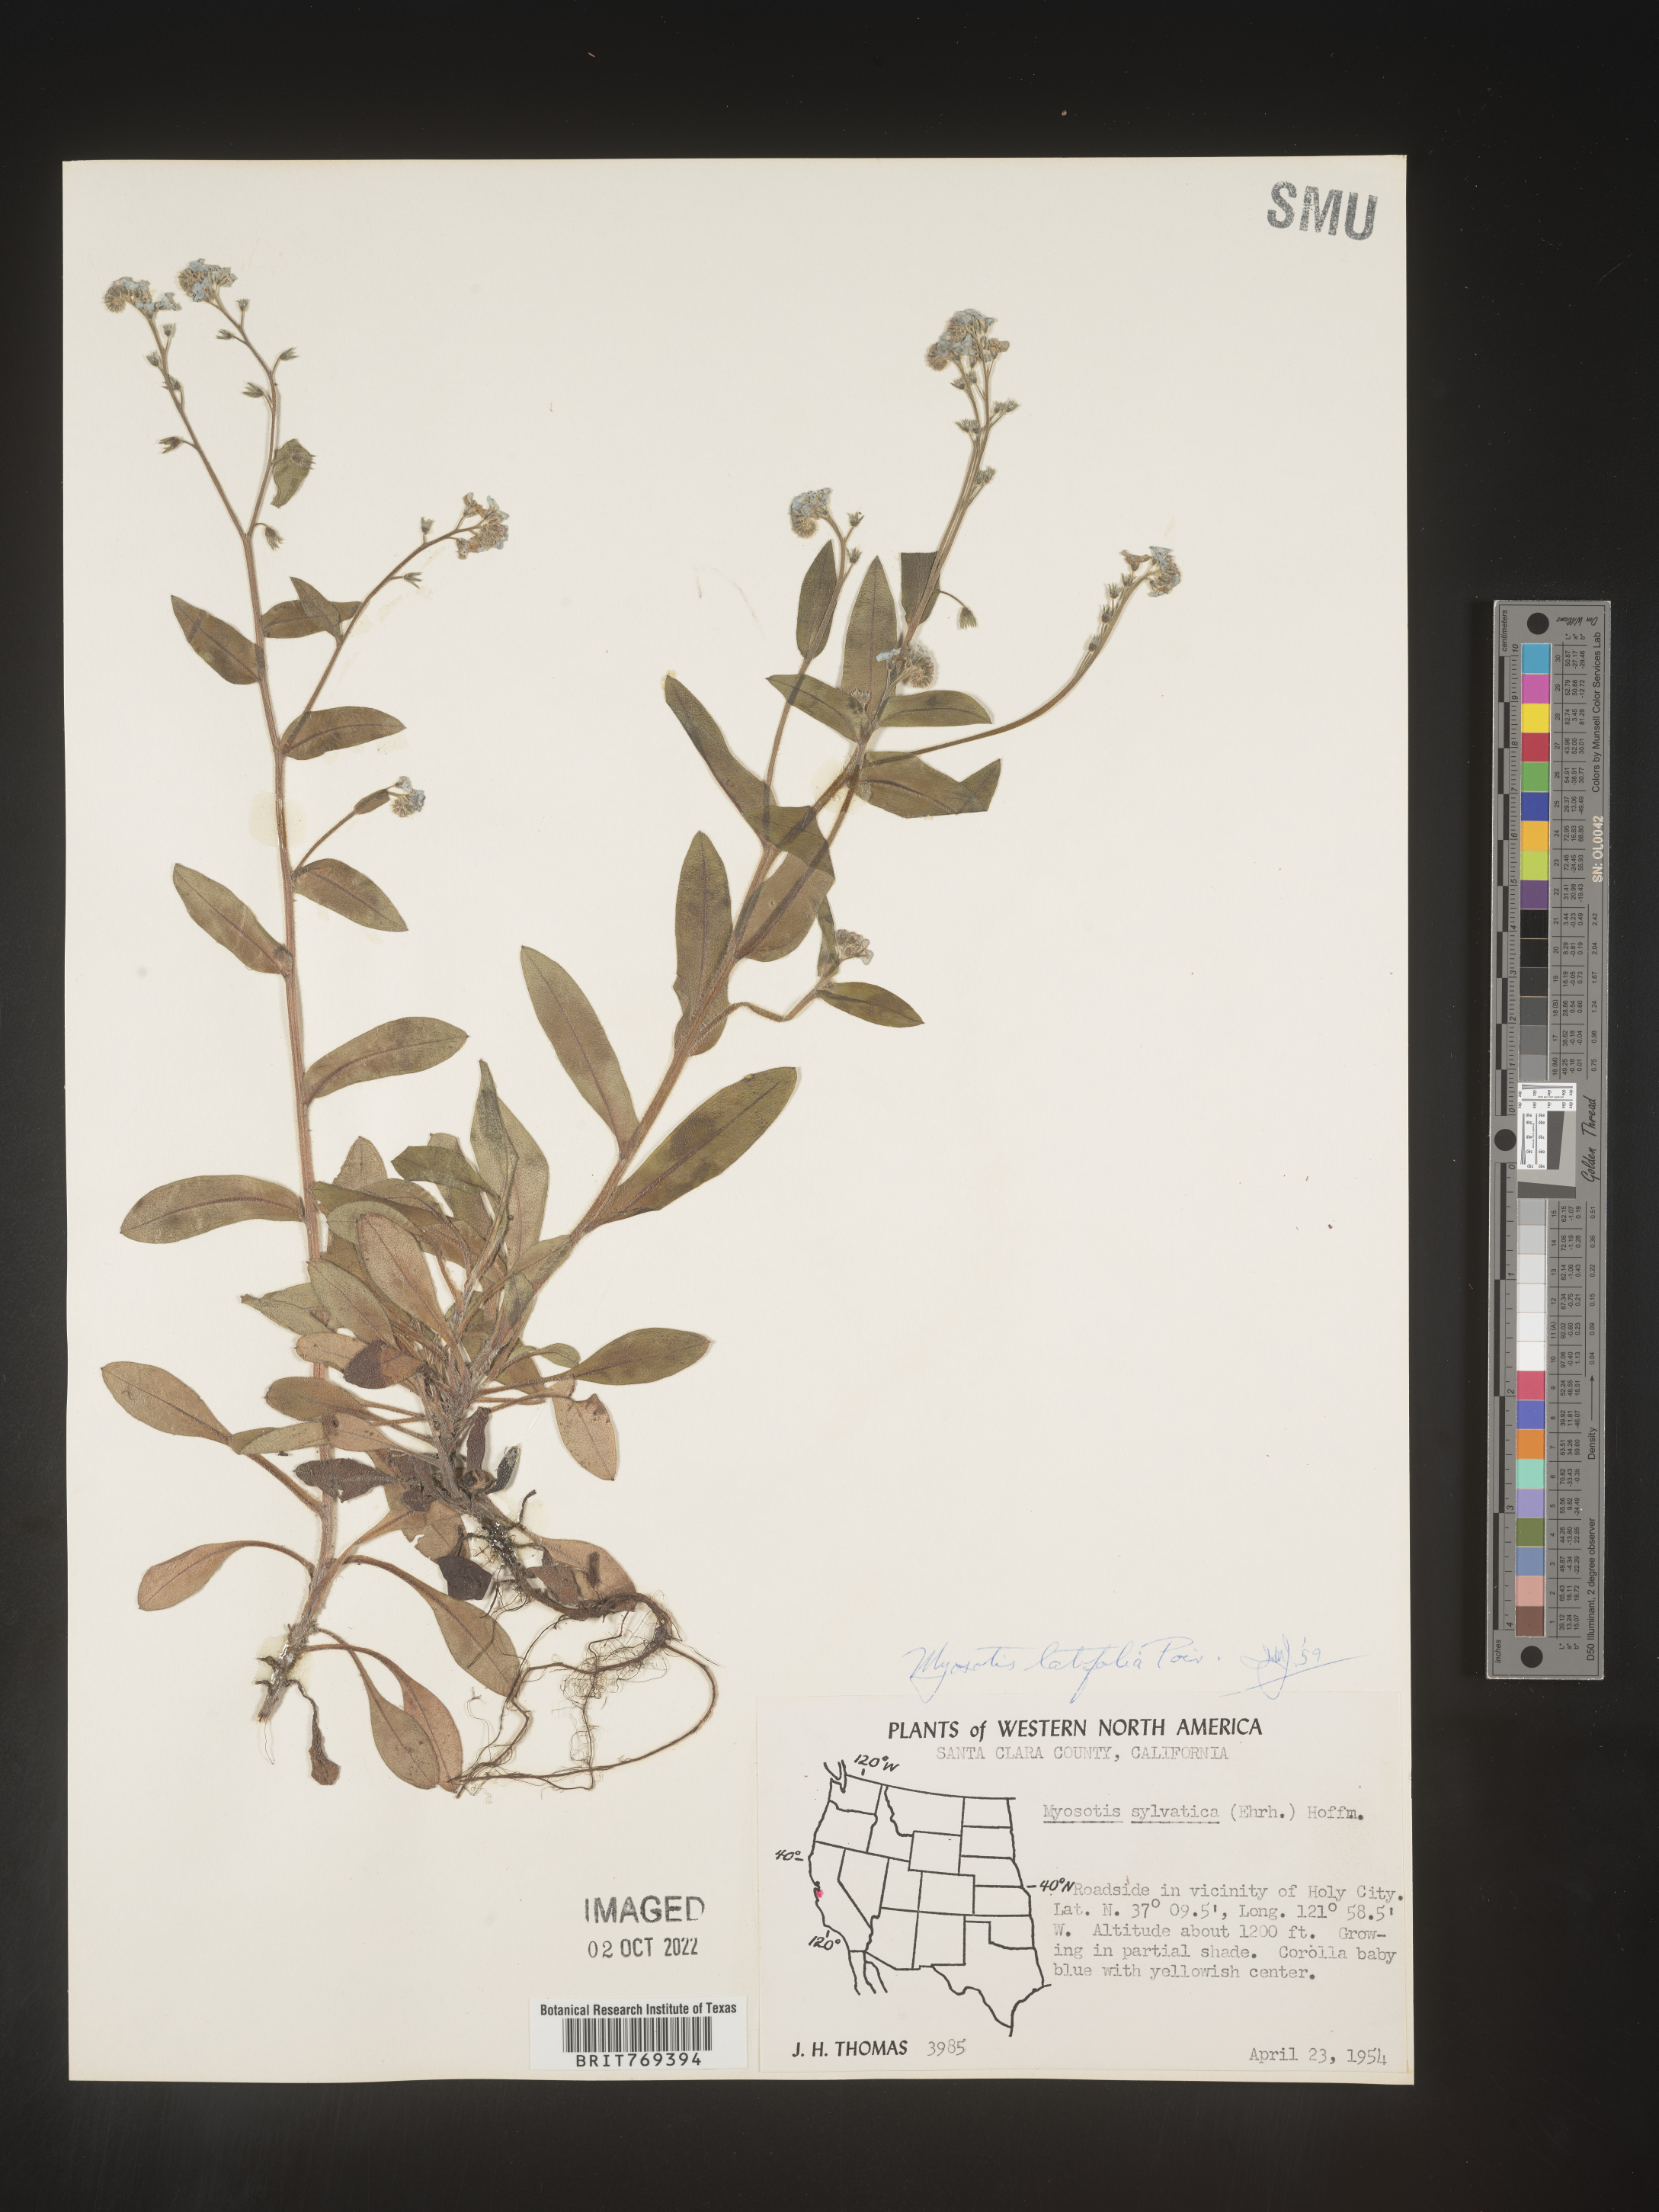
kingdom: Plantae
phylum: Tracheophyta
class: Magnoliopsida
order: Boraginales
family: Boraginaceae
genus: Myosotis
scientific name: Myosotis
